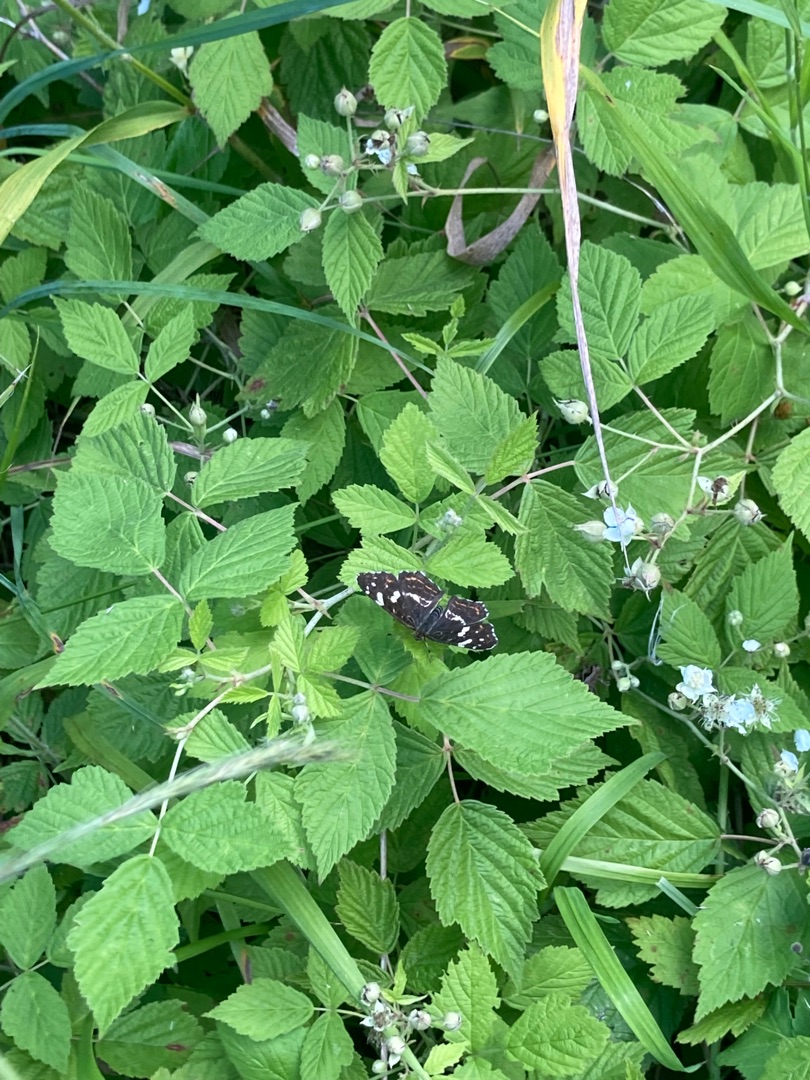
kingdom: Animalia
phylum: Arthropoda
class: Insecta
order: Lepidoptera
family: Nymphalidae
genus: Araschnia
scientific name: Araschnia levana
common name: Nældesommerfugl
